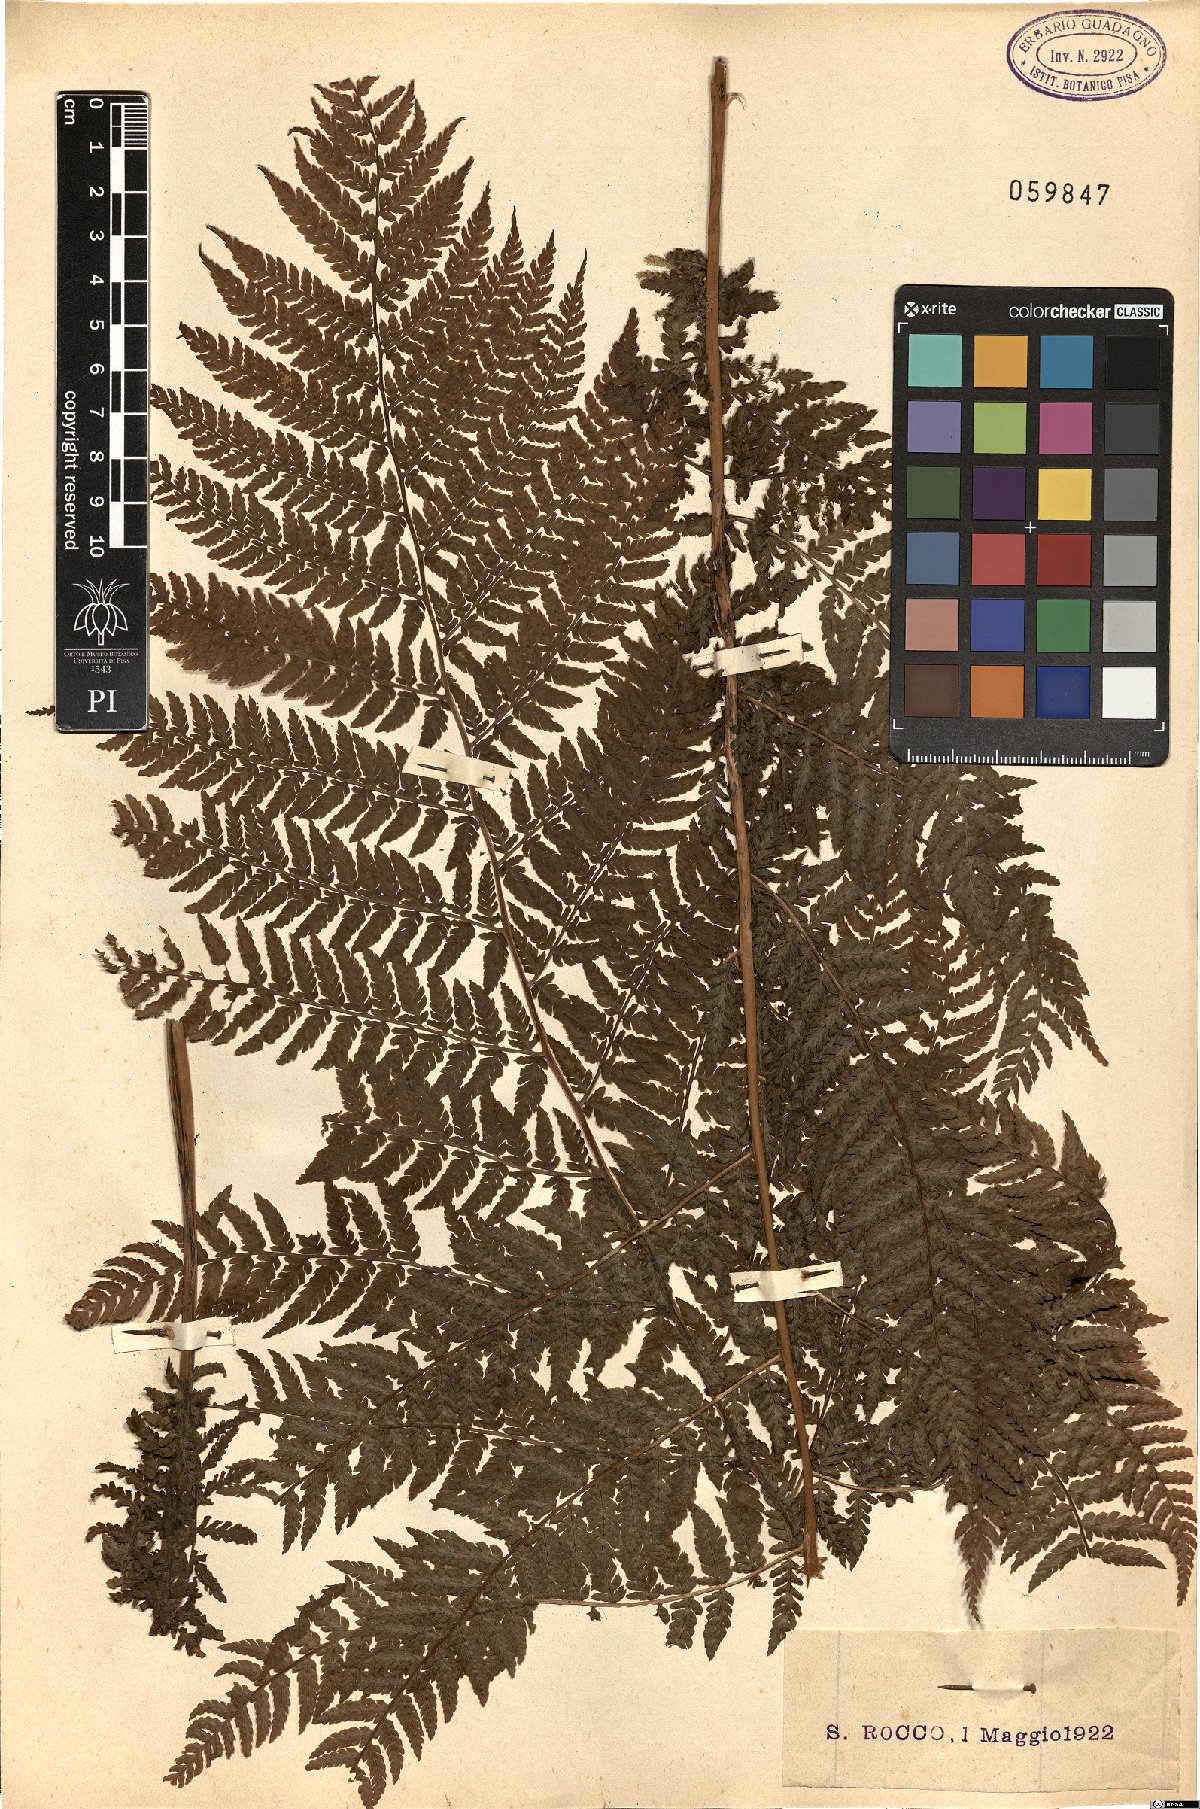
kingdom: Plantae
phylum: Tracheophyta
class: Polypodiopsida
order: Polypodiales
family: Athyriaceae
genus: Athyrium
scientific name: Athyrium filix-femina
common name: Lady fern
